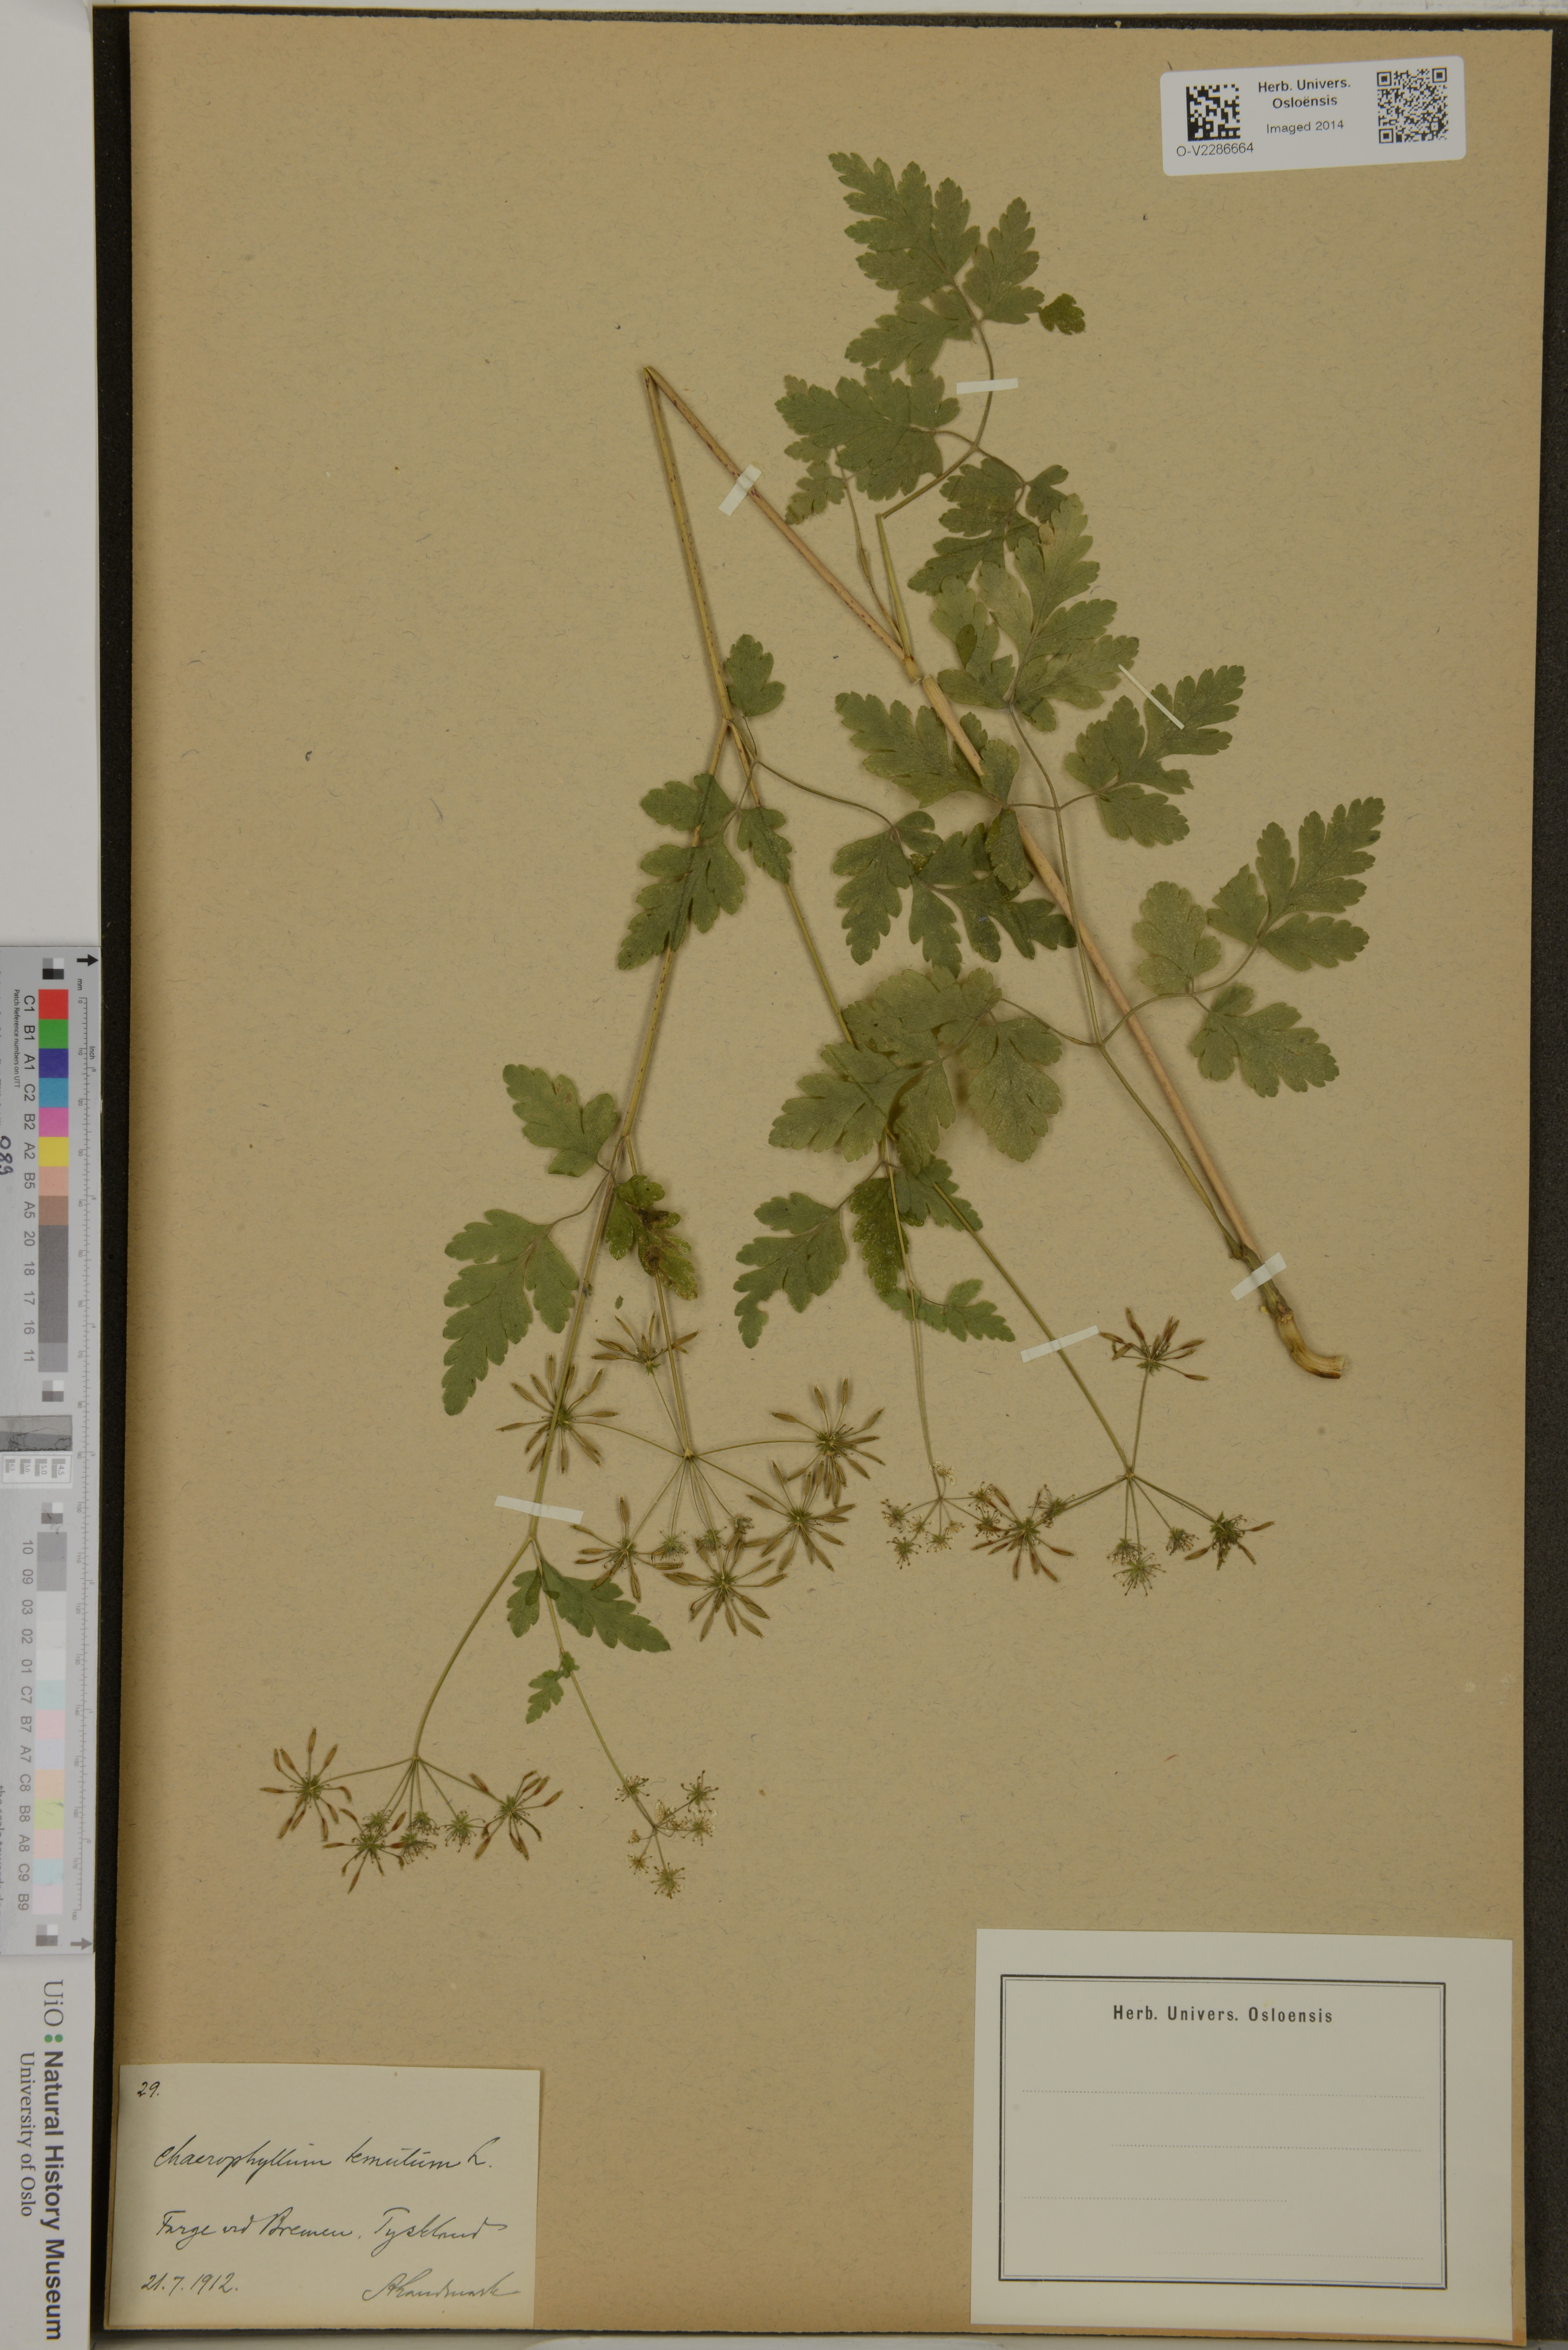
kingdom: Plantae
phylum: Tracheophyta
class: Magnoliopsida
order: Apiales
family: Apiaceae
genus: Chaerophyllum
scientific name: Chaerophyllum temulum
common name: Rough chervil
